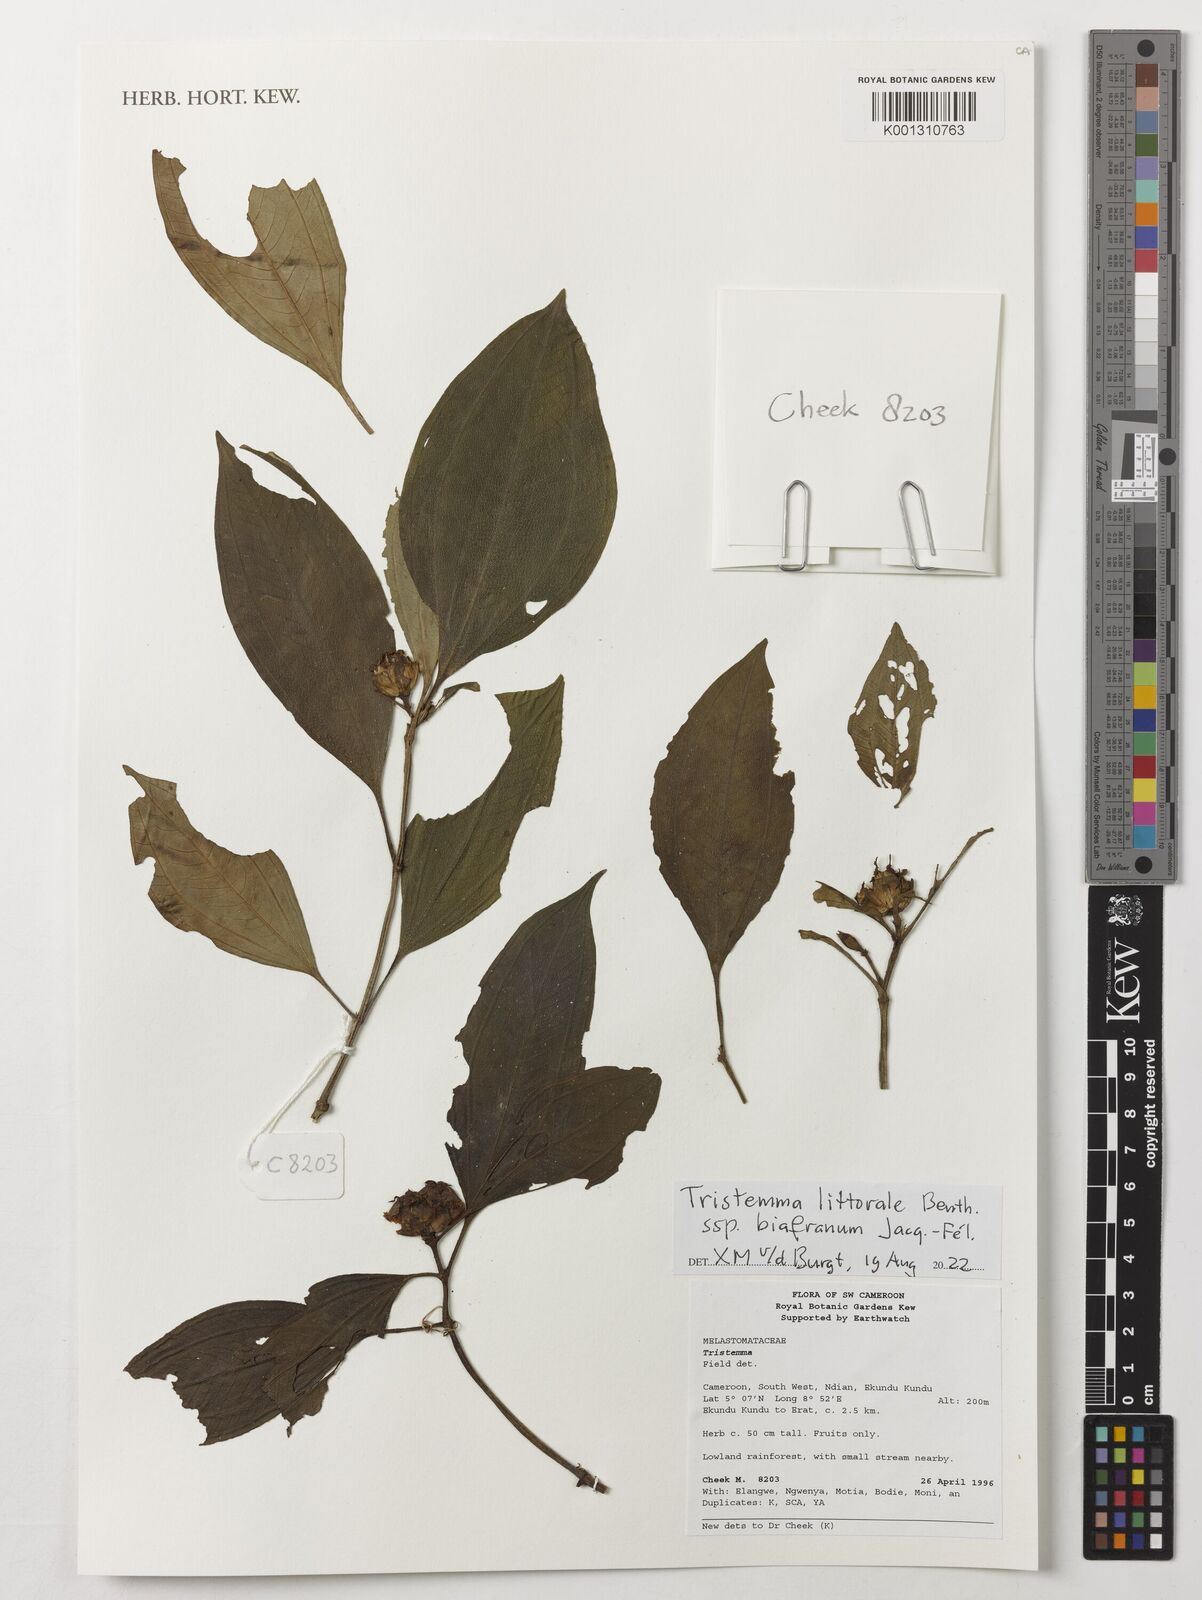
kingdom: Plantae
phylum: Tracheophyta
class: Magnoliopsida
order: Myrtales
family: Melastomataceae
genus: Tristemma
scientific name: Tristemma littorale
